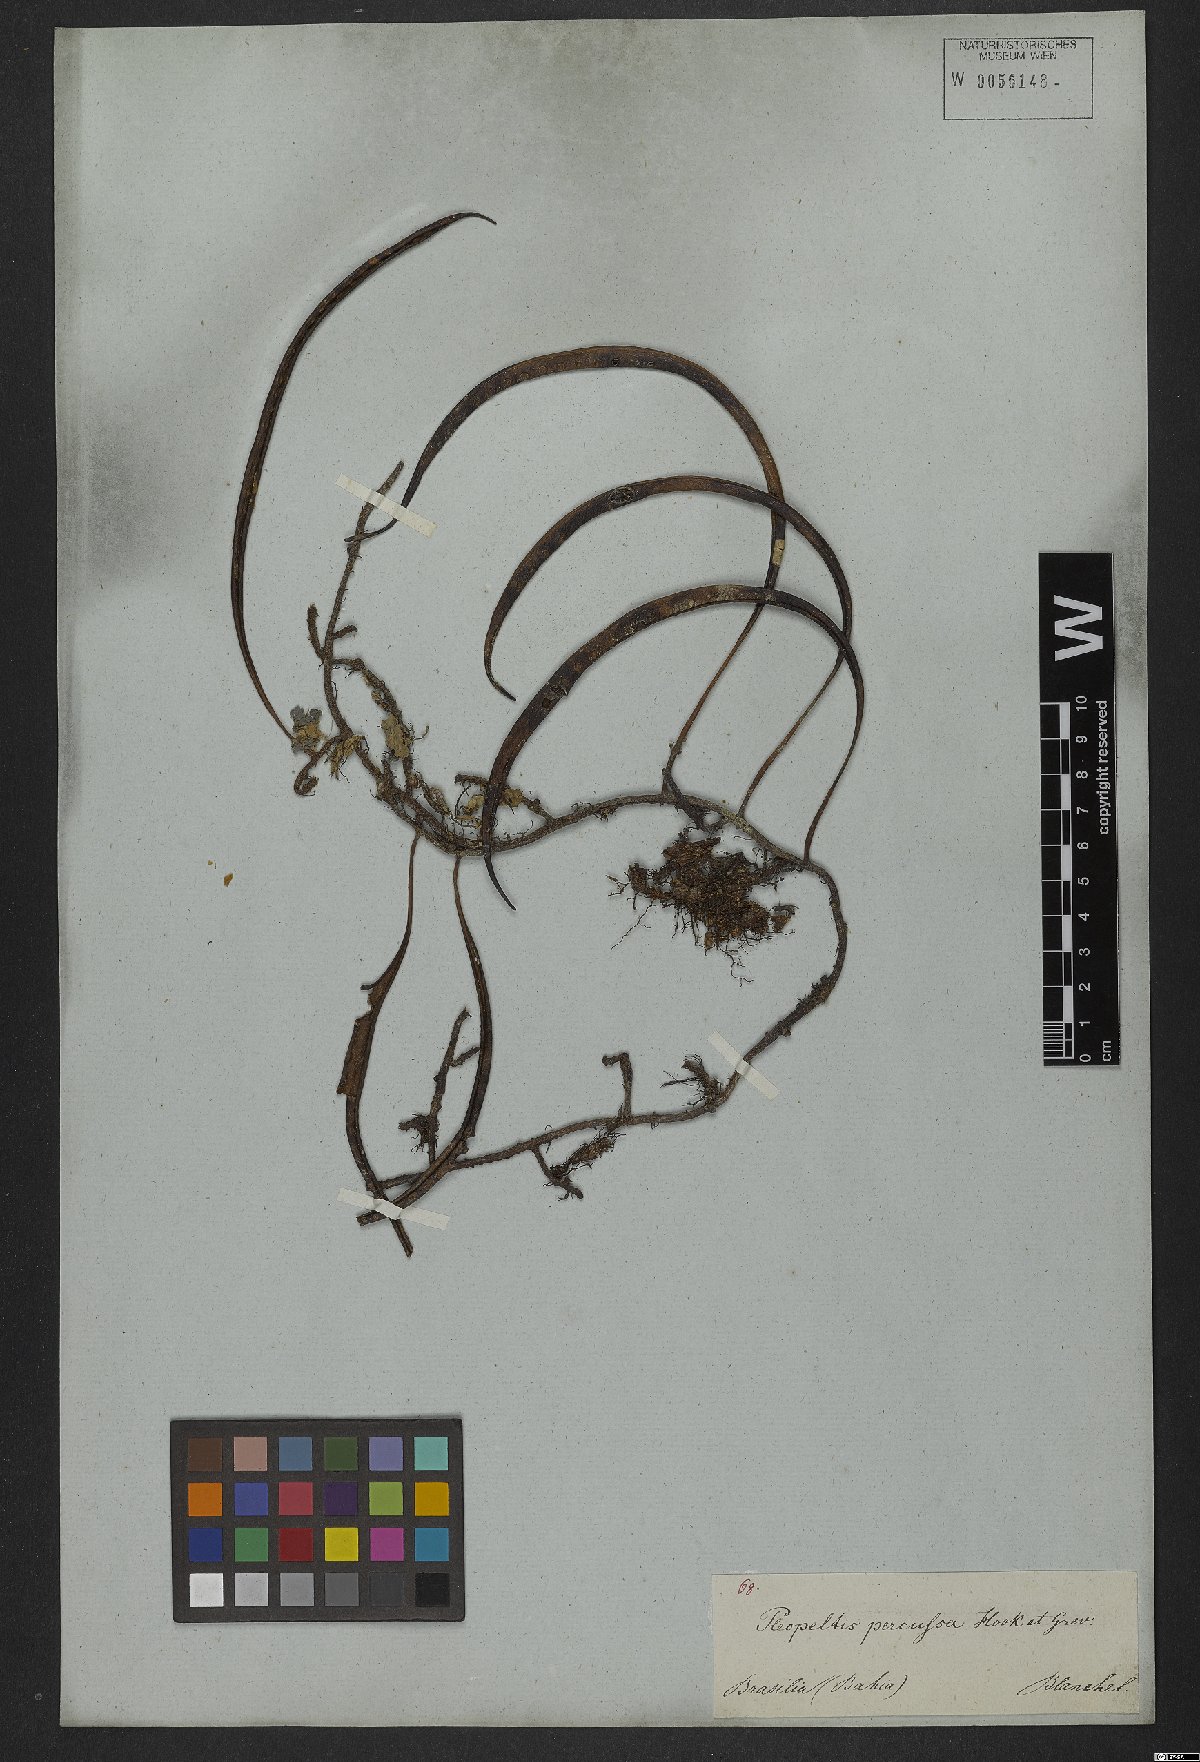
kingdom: Plantae
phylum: Tracheophyta
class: Polypodiopsida
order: Polypodiales
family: Polypodiaceae
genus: Microgramma
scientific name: Microgramma percussa
